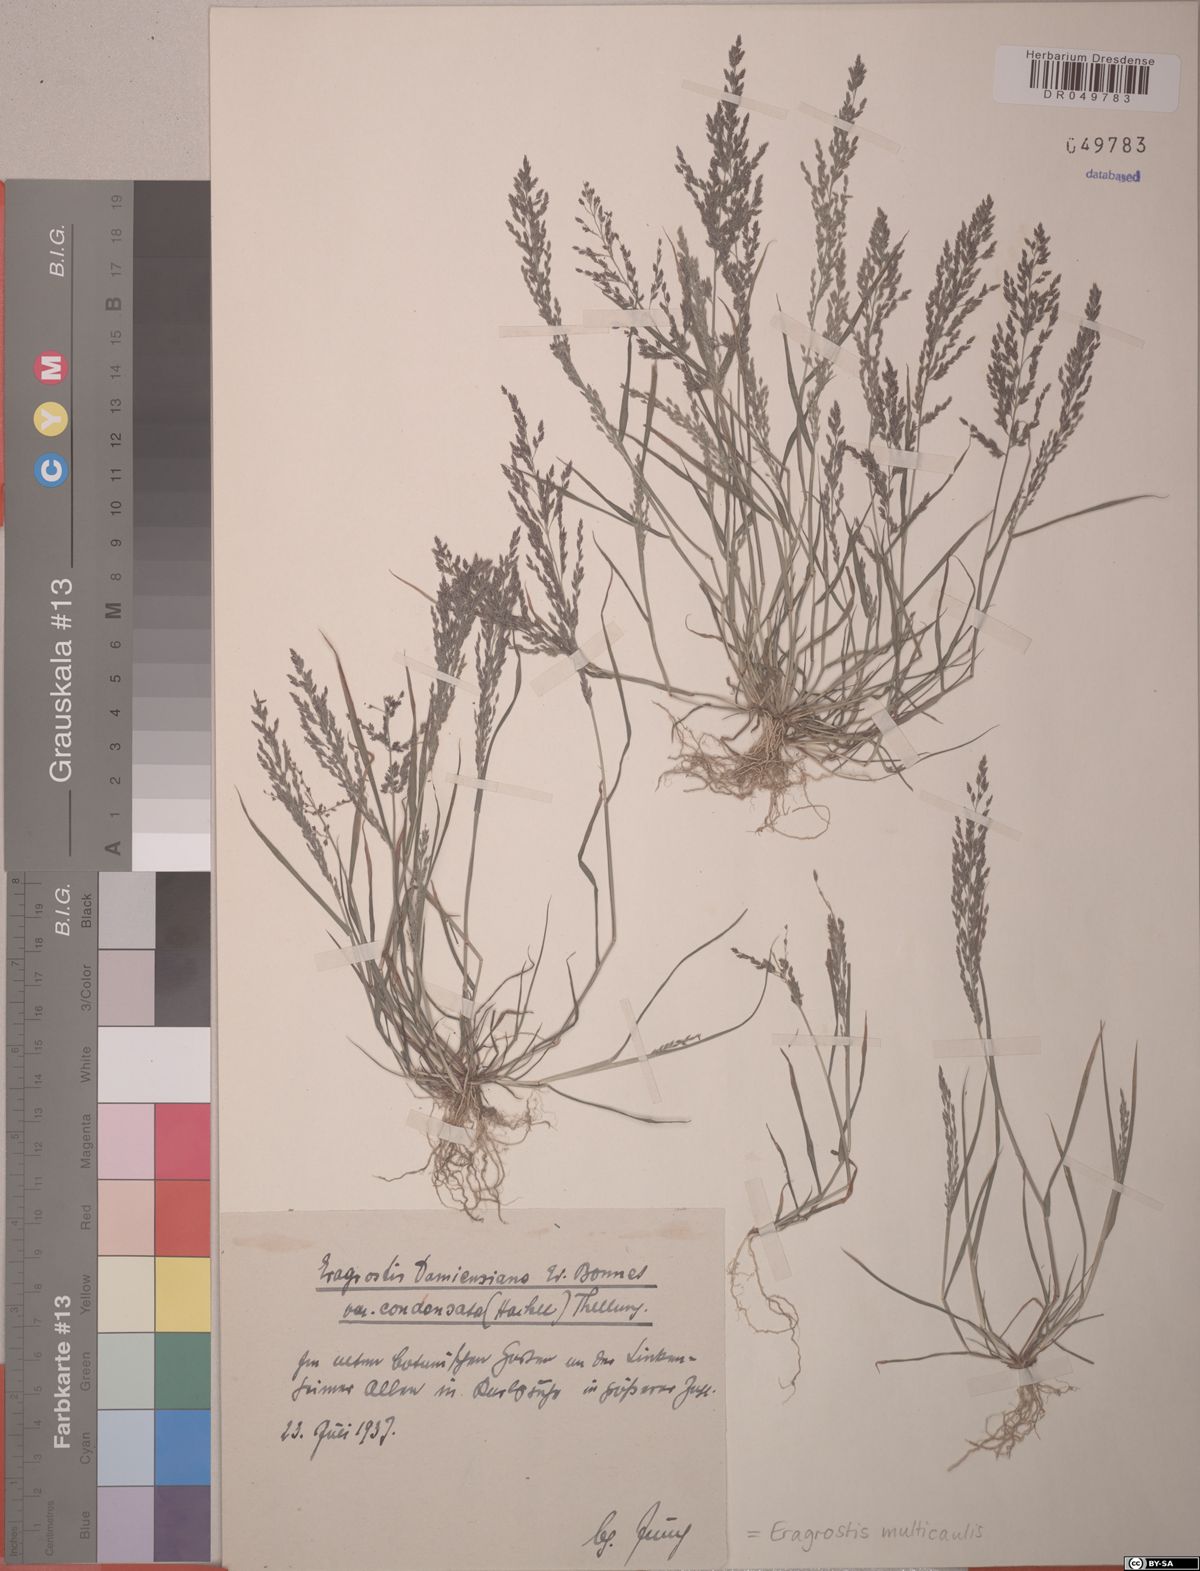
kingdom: Plantae
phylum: Tracheophyta
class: Liliopsida
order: Poales
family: Poaceae
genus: Eragrostis
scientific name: Eragrostis multicaulis
